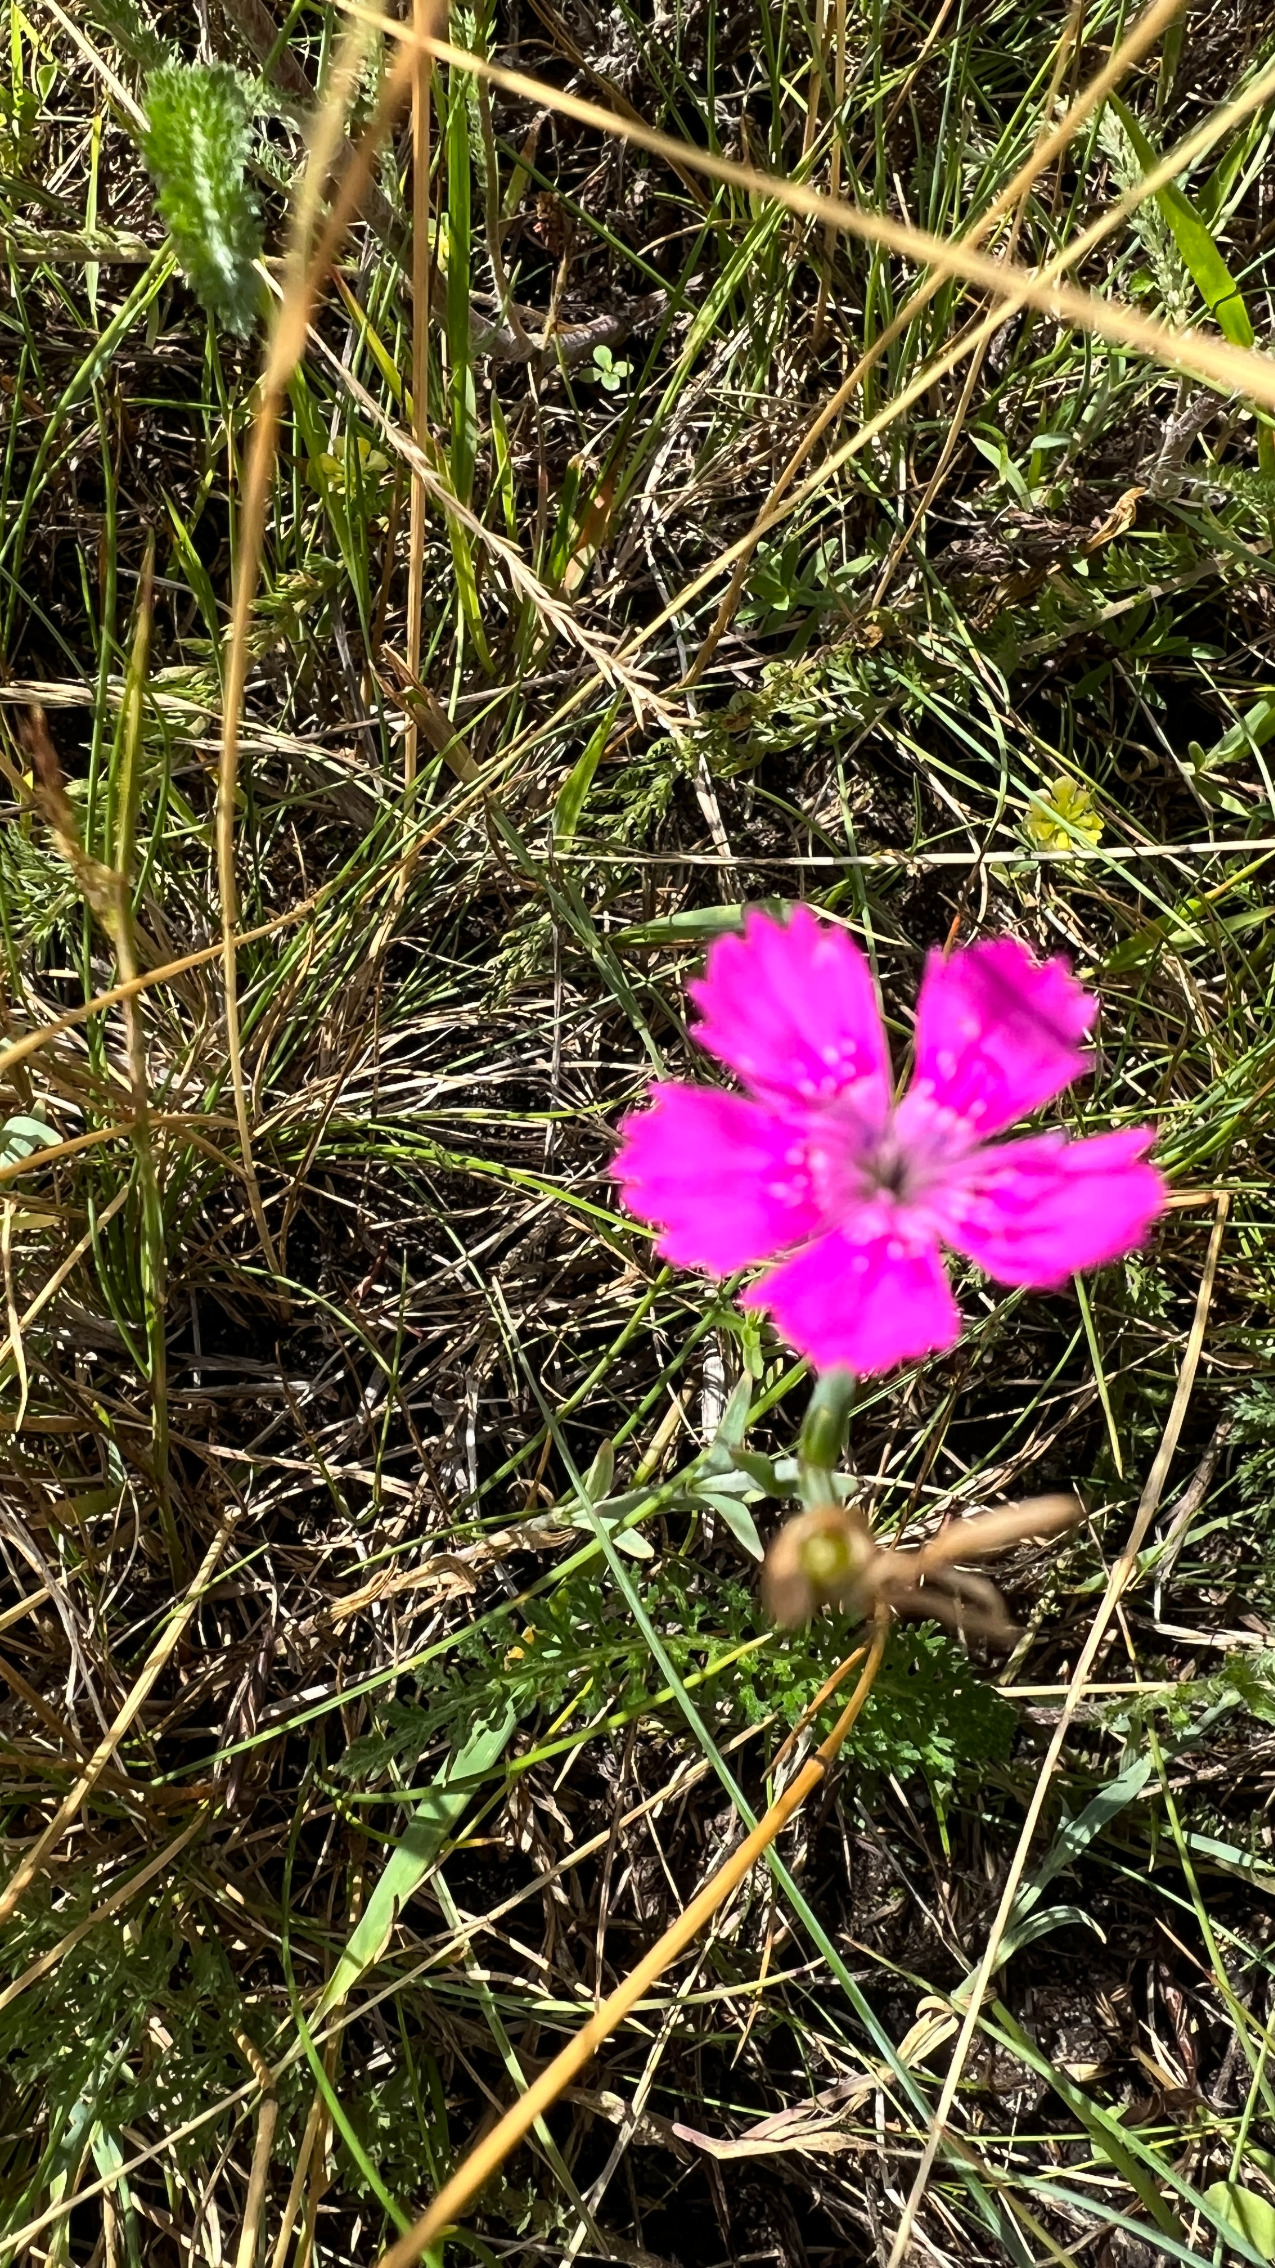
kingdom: Plantae
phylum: Tracheophyta
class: Magnoliopsida
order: Caryophyllales
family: Caryophyllaceae
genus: Dianthus
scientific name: Dianthus deltoides
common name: Bakke-nellike
